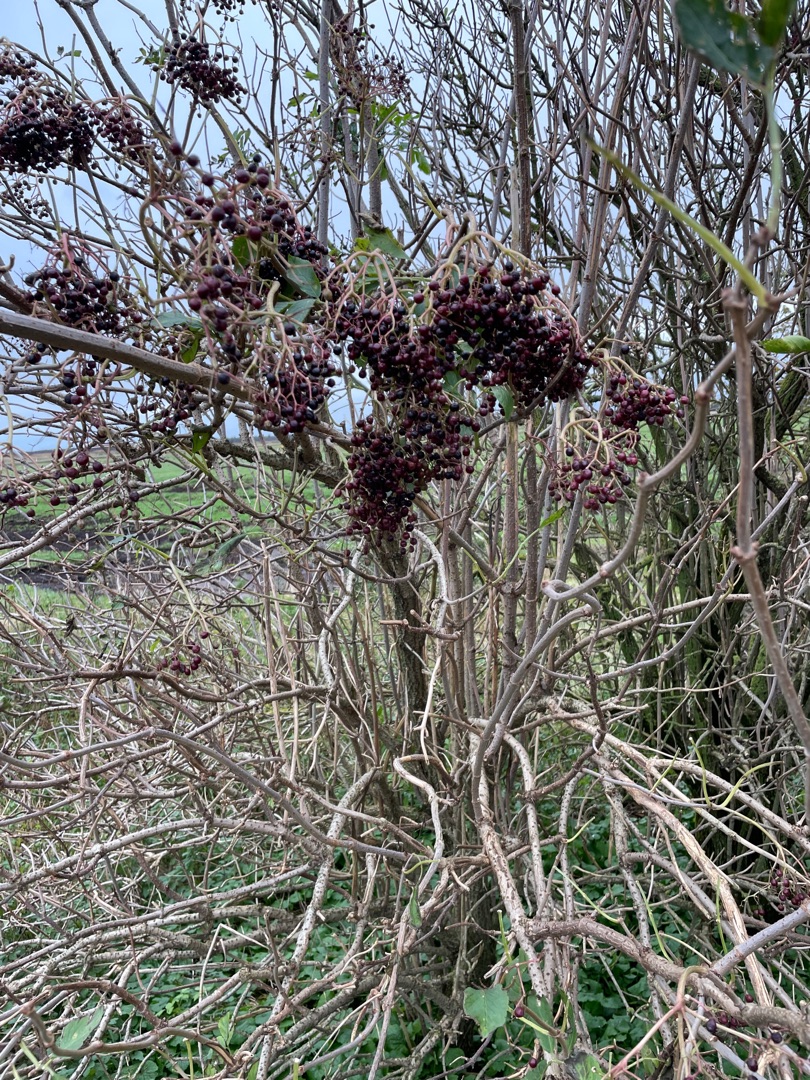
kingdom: Plantae
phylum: Tracheophyta
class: Magnoliopsida
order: Dipsacales
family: Viburnaceae
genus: Sambucus
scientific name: Sambucus nigra
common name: Almindelig hyld
